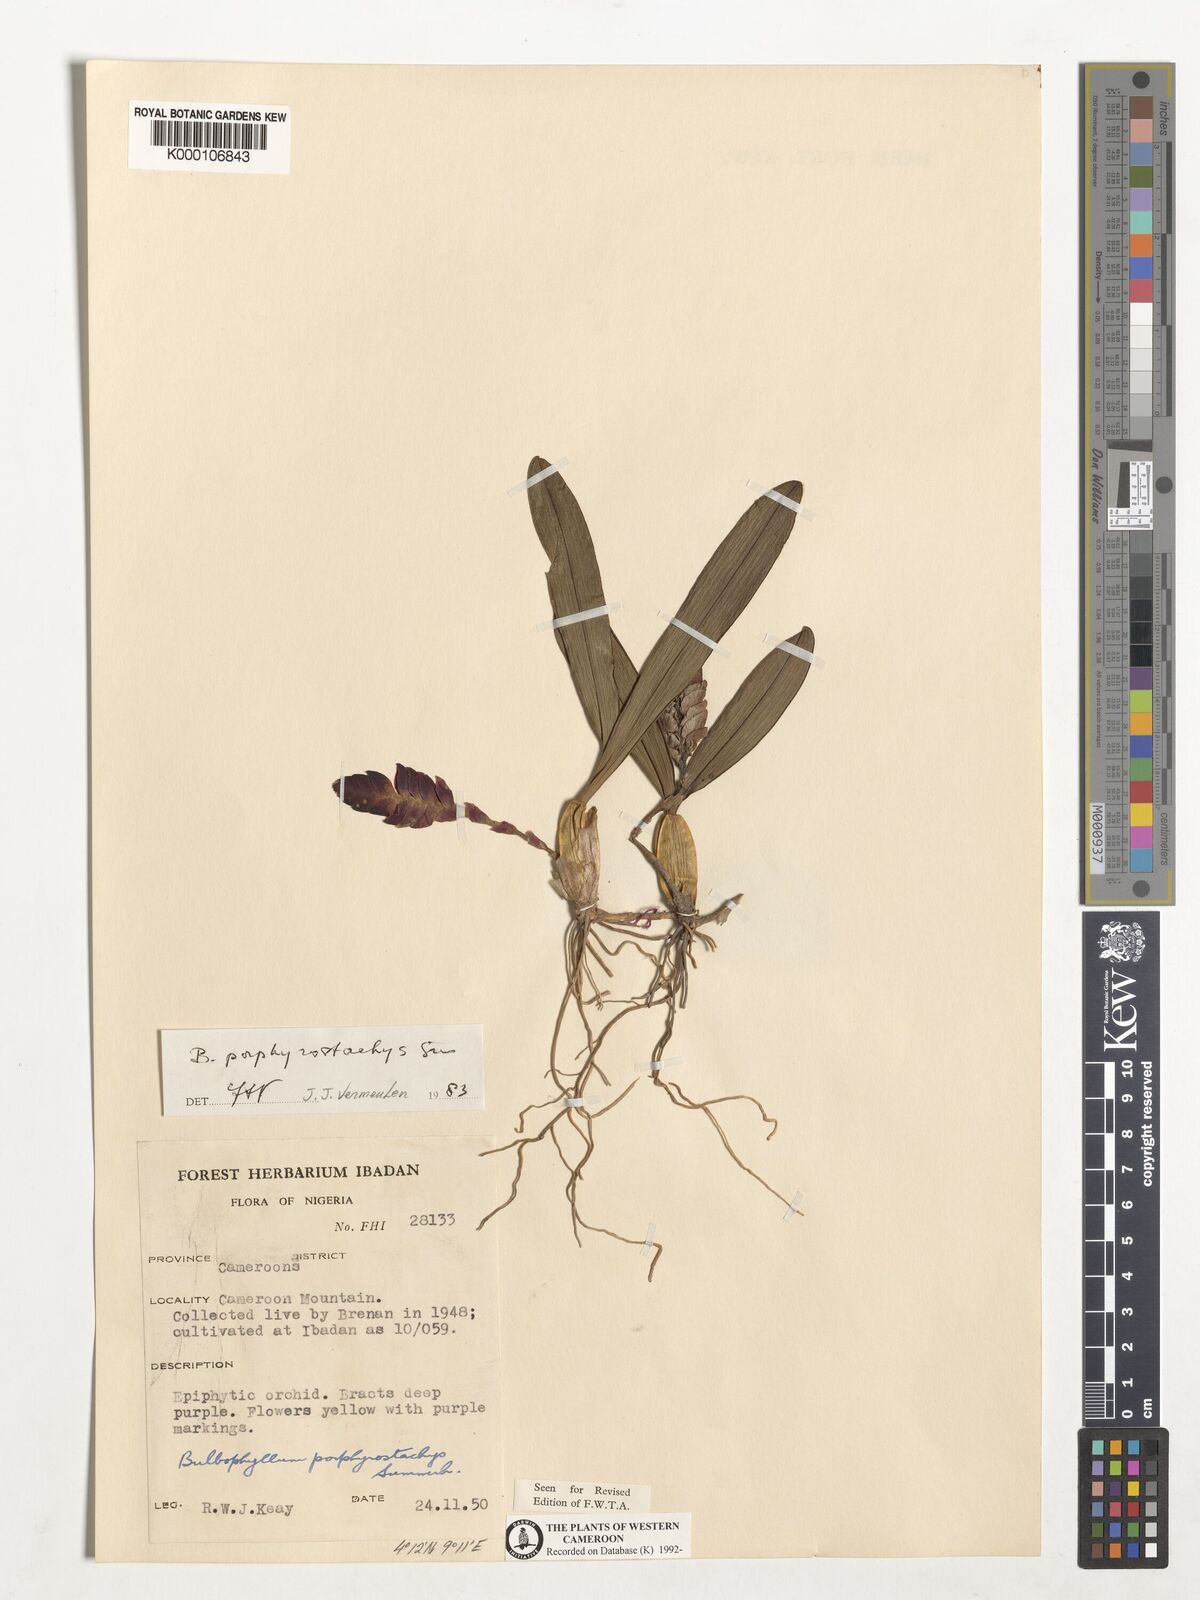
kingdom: Plantae
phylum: Tracheophyta
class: Liliopsida
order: Asparagales
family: Orchidaceae
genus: Bulbophyllum
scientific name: Bulbophyllum porphyrostachys
